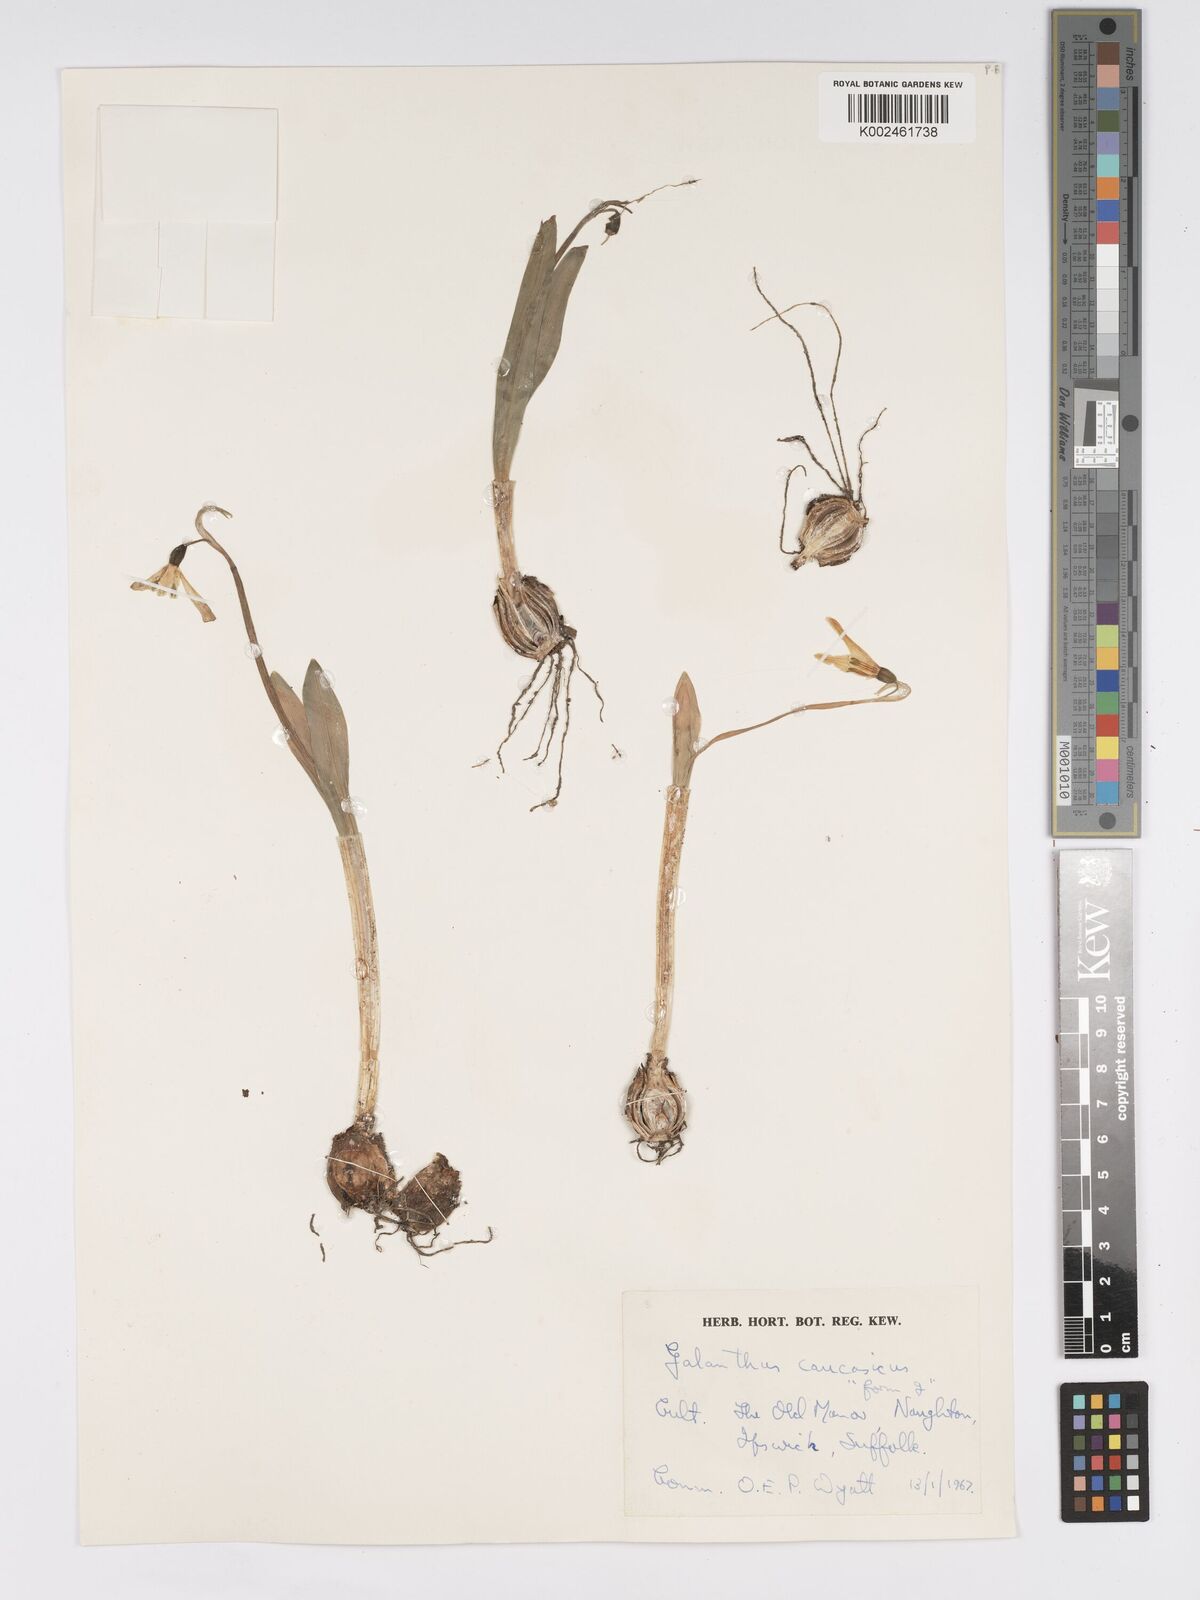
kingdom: Plantae
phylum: Tracheophyta
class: Liliopsida
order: Asparagales
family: Amaryllidaceae
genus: Galanthus
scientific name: Galanthus alpinus
